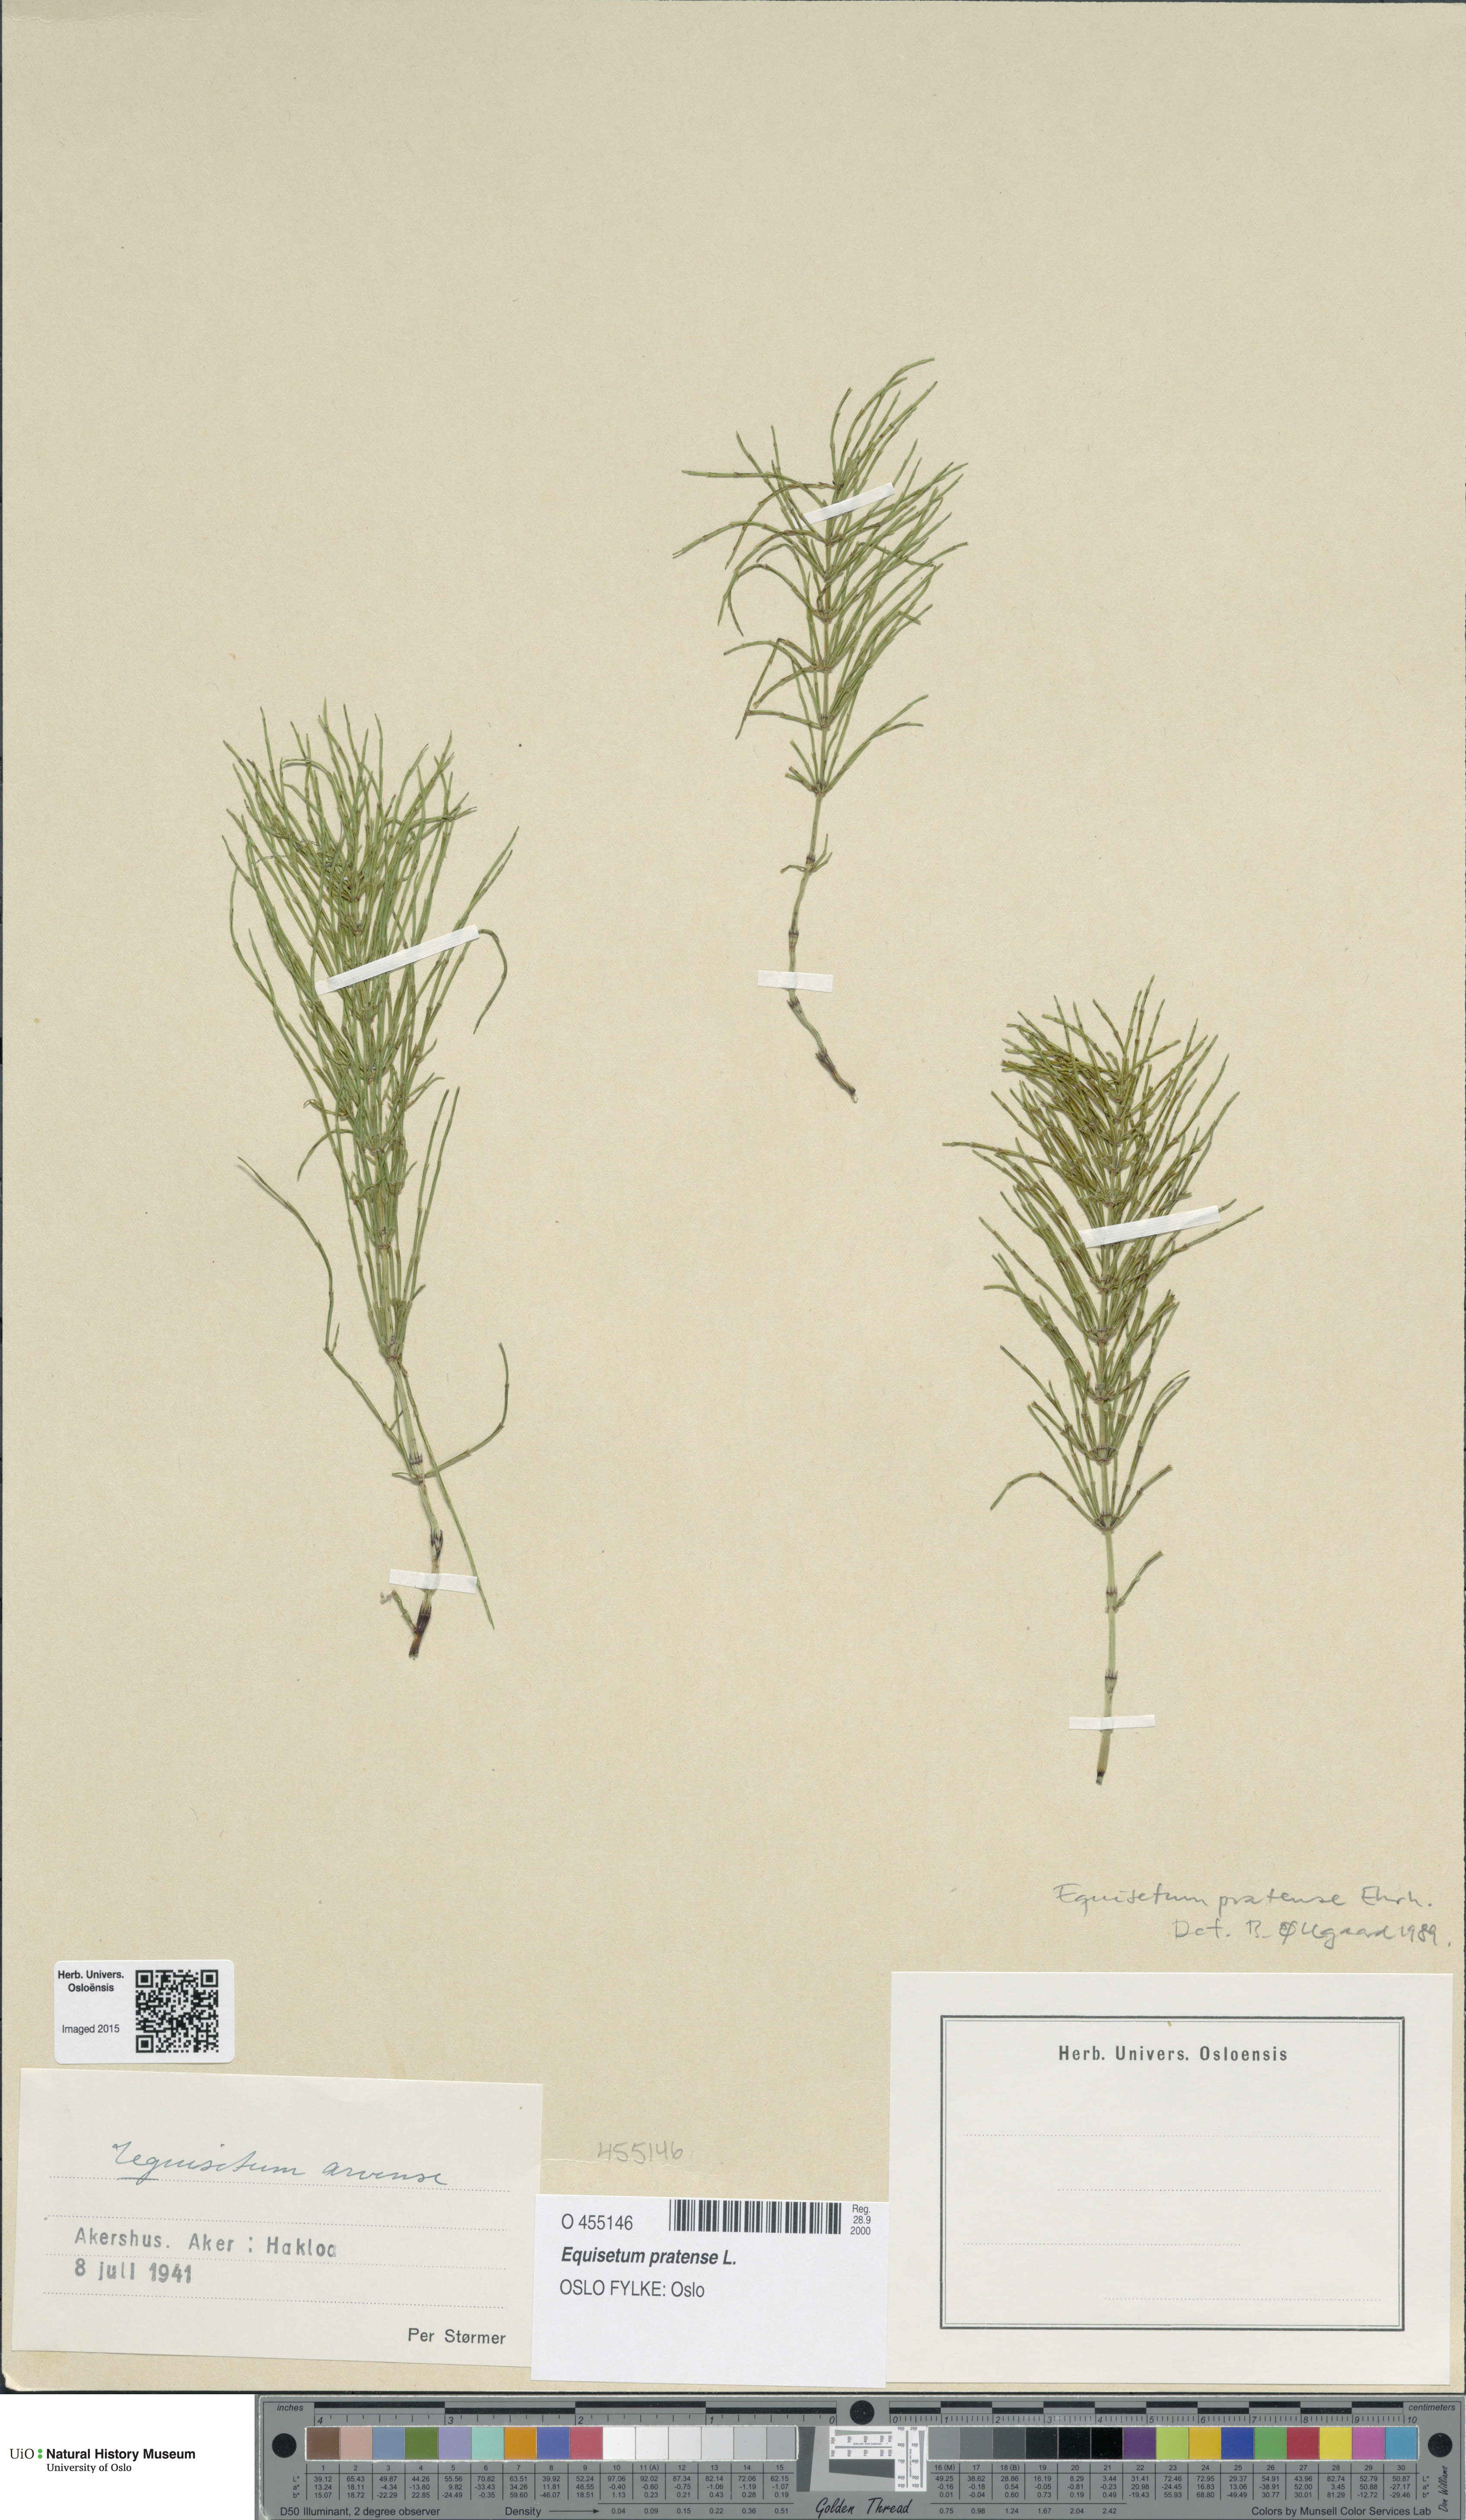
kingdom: Plantae
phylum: Tracheophyta
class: Polypodiopsida
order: Equisetales
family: Equisetaceae
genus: Equisetum
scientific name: Equisetum pratense
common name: Meadow horsetail
